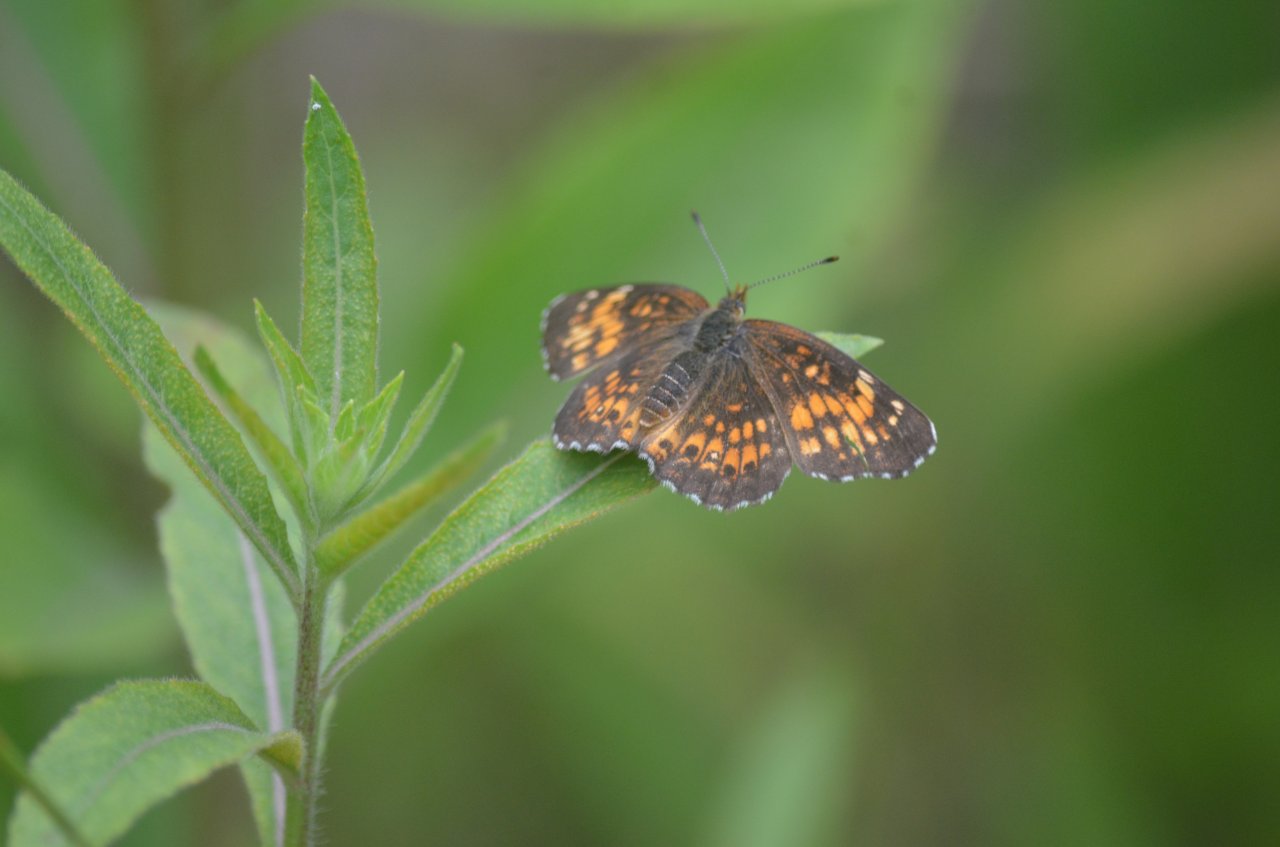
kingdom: Animalia
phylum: Arthropoda
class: Insecta
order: Lepidoptera
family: Nymphalidae
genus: Chlosyne
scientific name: Chlosyne harrisii
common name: Harris's Checkerspot
